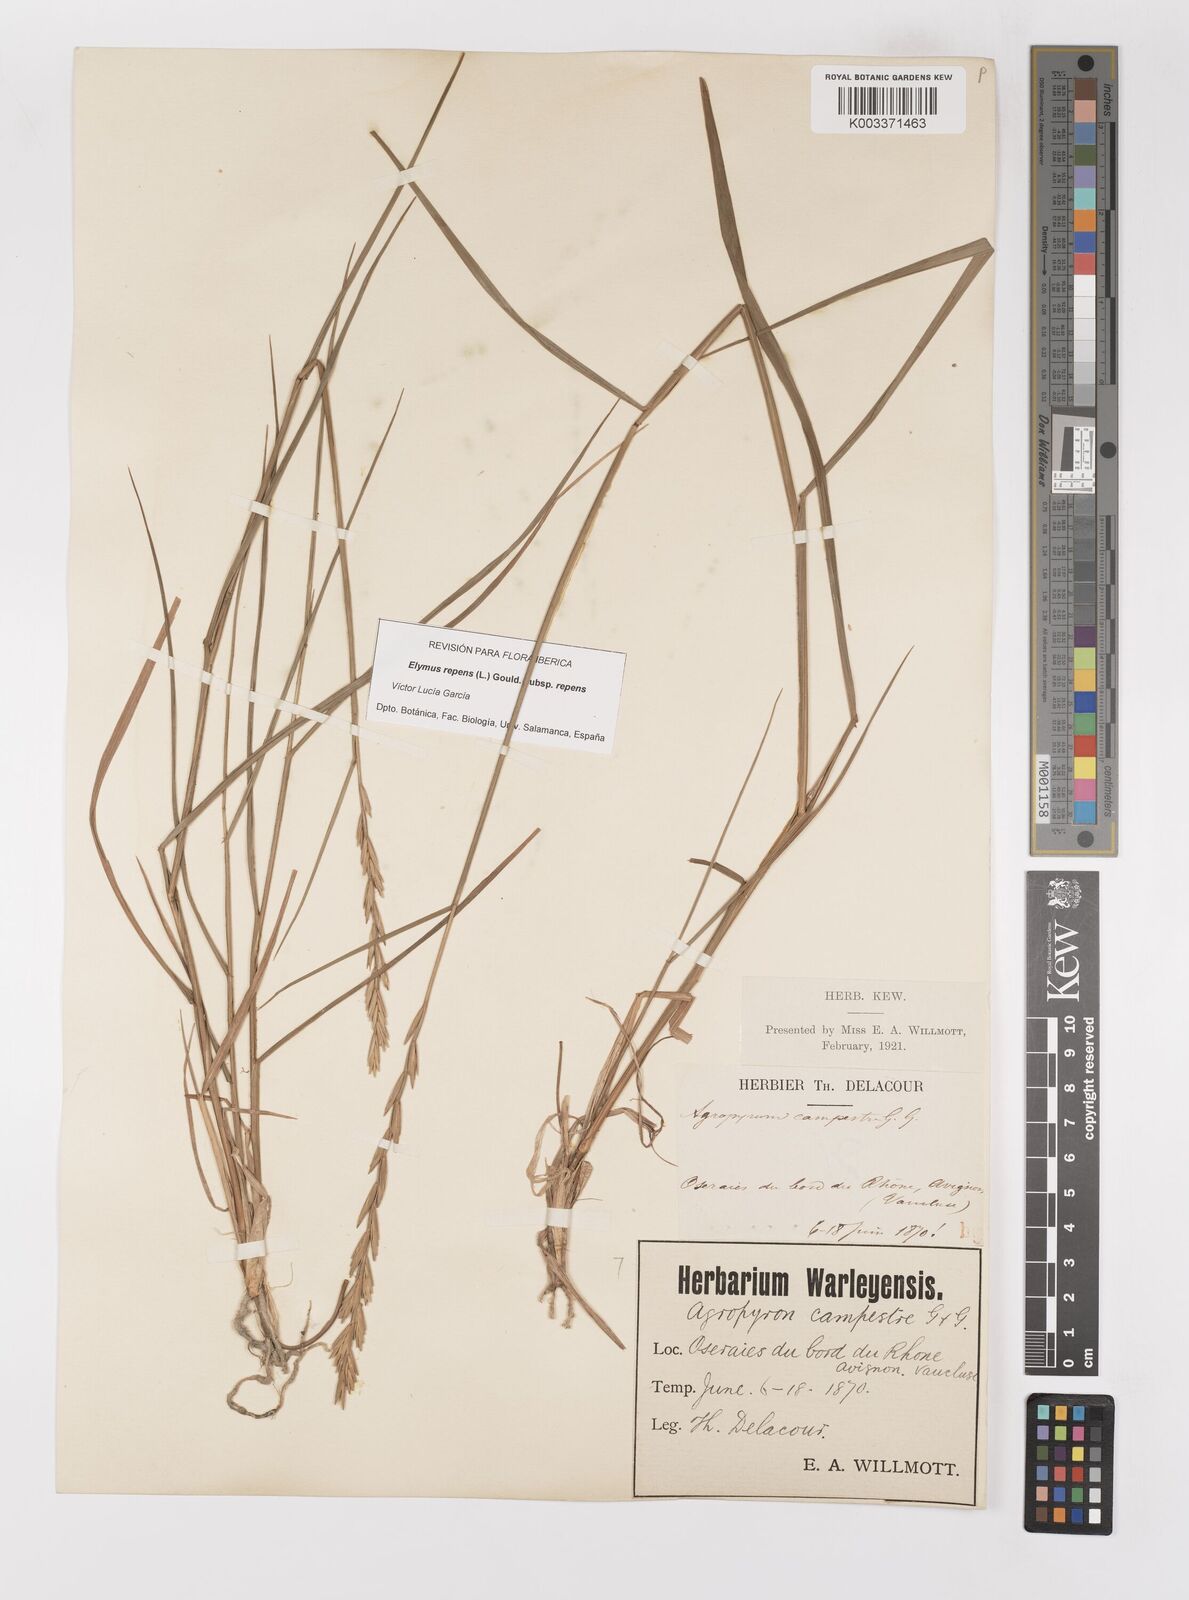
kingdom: Plantae
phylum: Tracheophyta
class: Liliopsida
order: Poales
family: Poaceae
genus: Elymus
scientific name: Elymus repens
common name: Quackgrass
